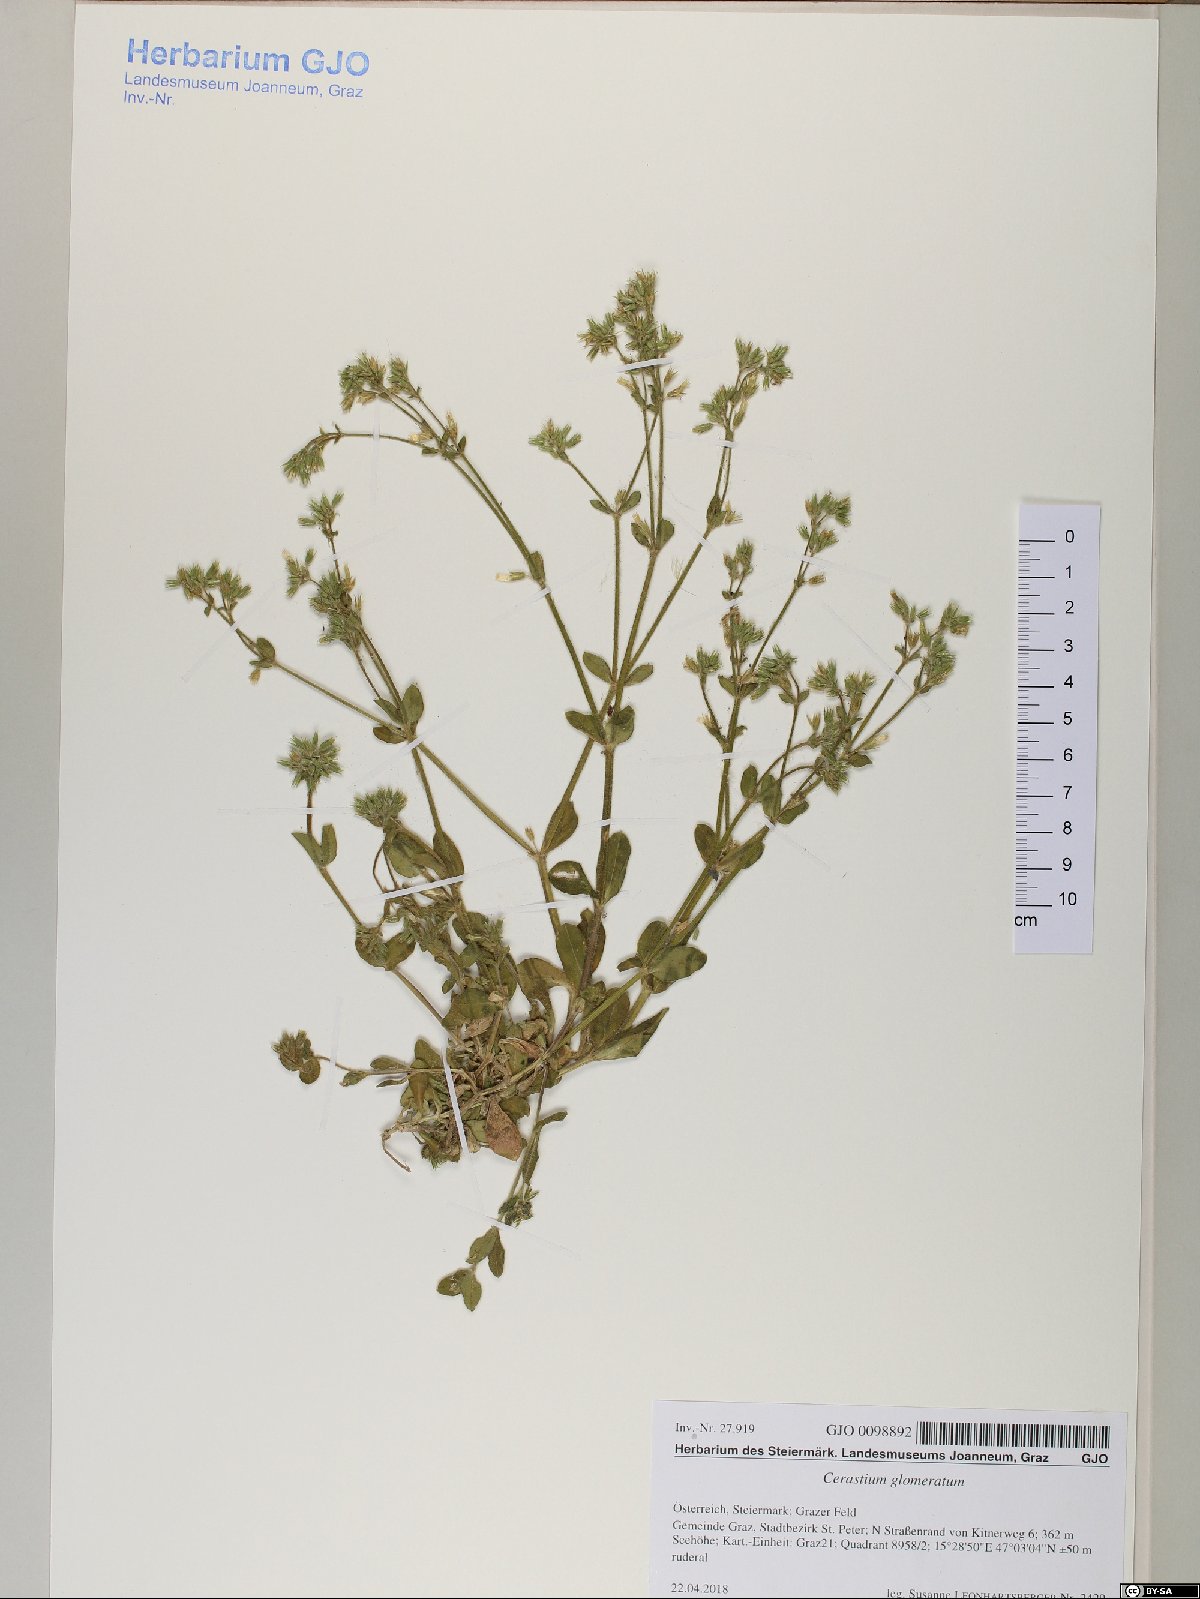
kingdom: Plantae
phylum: Tracheophyta
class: Magnoliopsida
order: Caryophyllales
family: Caryophyllaceae
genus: Cerastium
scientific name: Cerastium glomeratum
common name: Sticky chickweed
